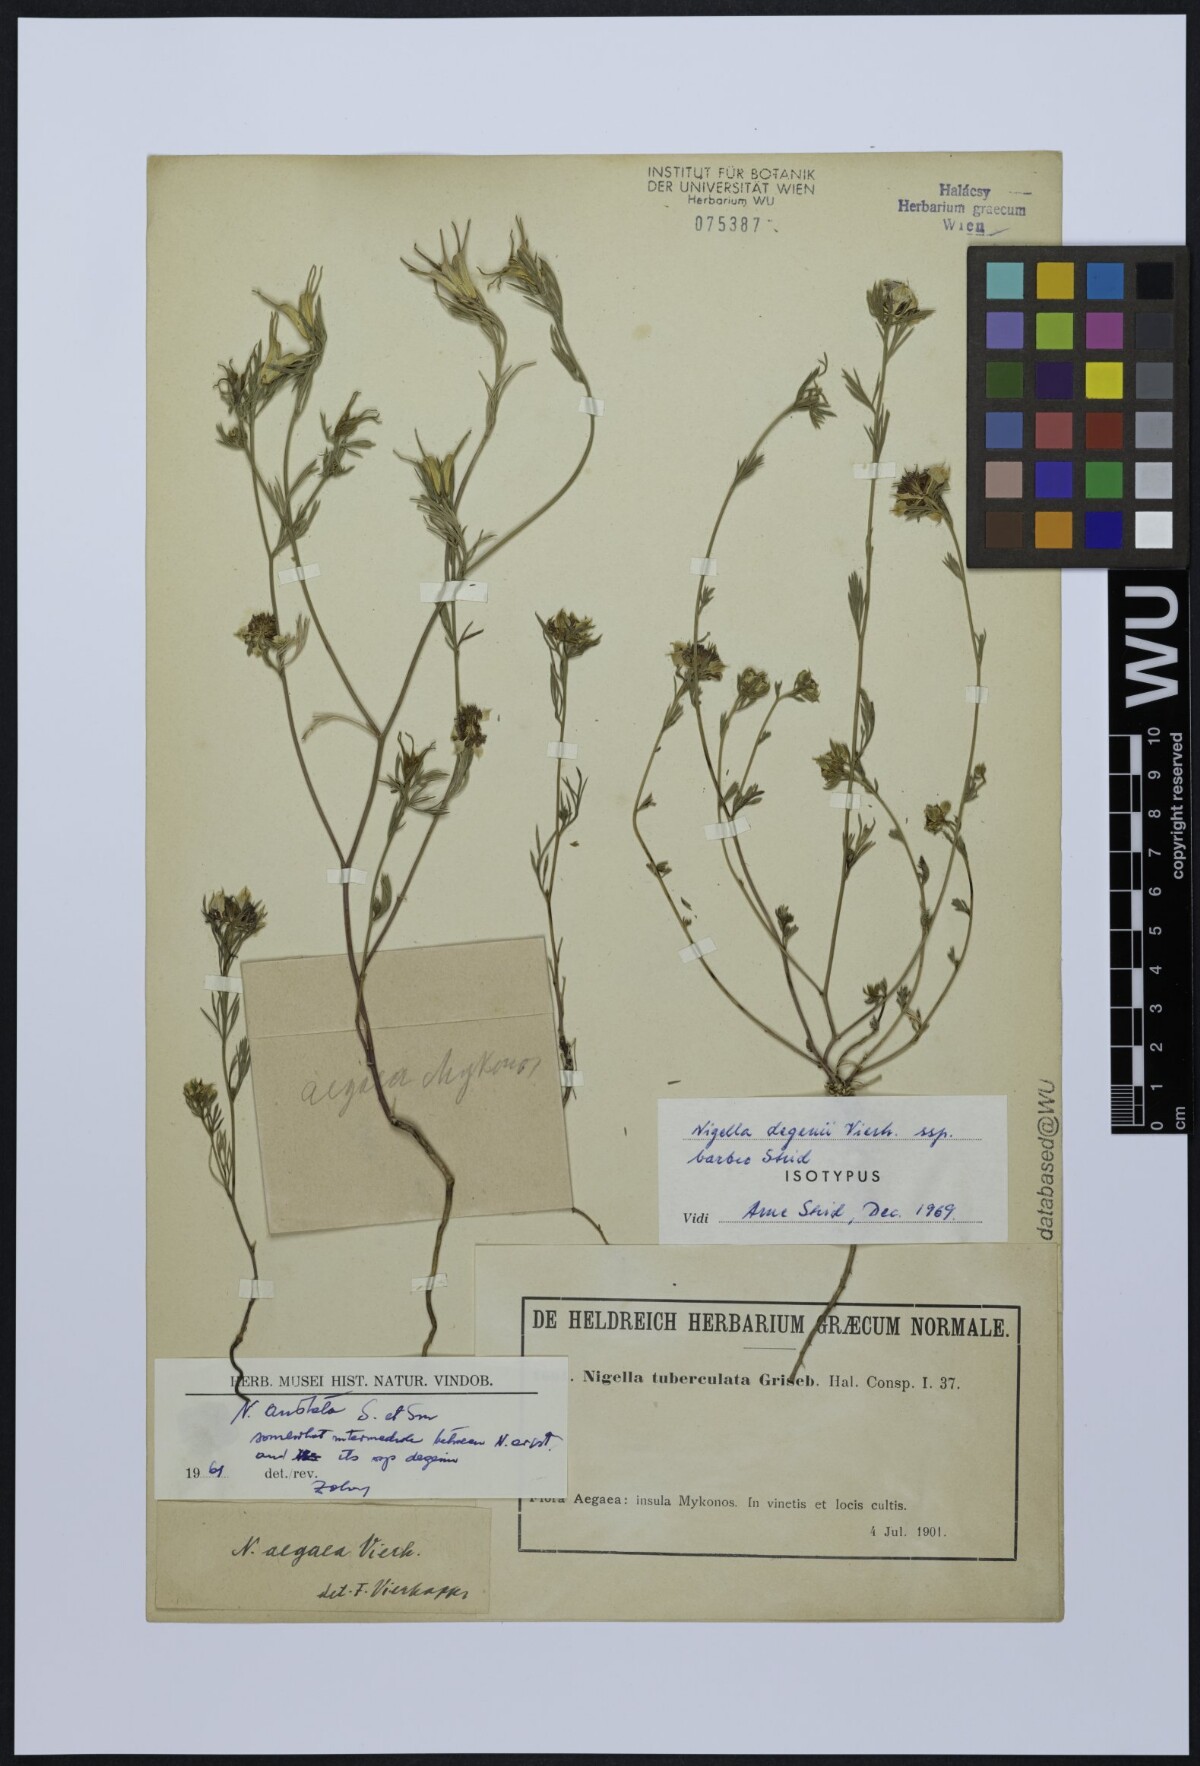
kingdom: Plantae
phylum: Tracheophyta
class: Magnoliopsida
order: Ranunculales
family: Ranunculaceae
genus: Nigella
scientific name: Nigella degenii
